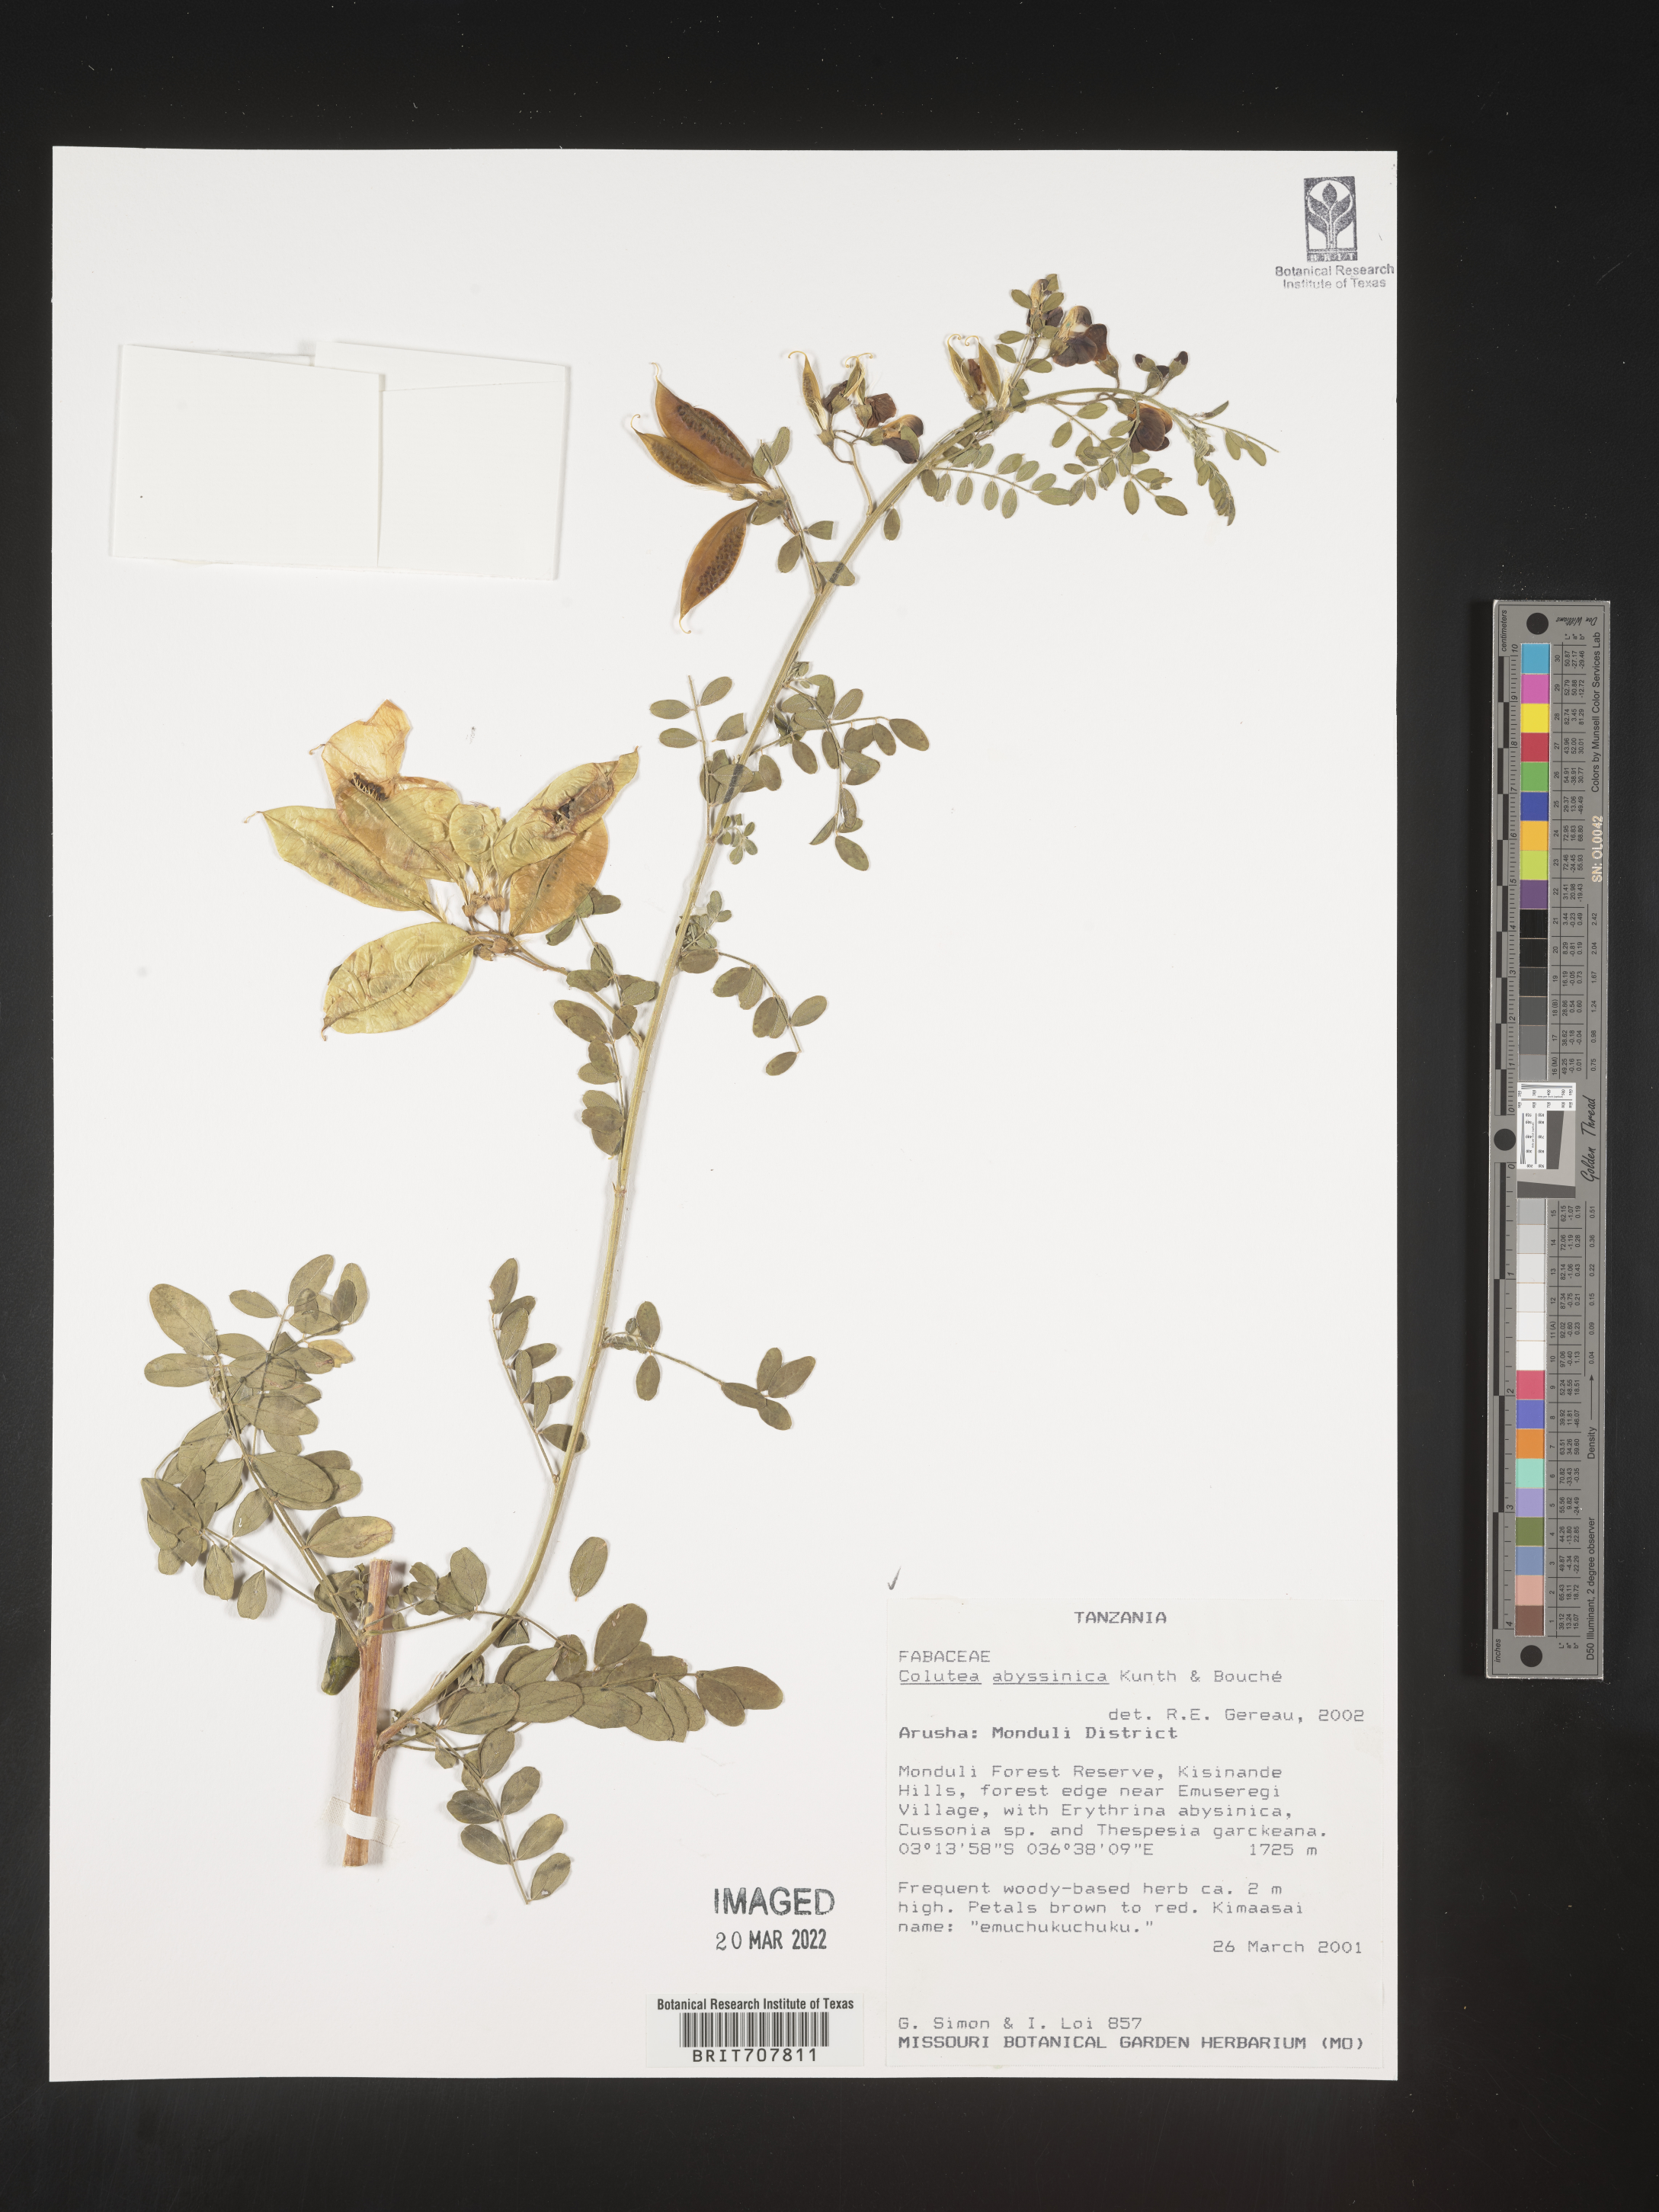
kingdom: Plantae
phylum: Tracheophyta
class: Magnoliopsida
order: Fabales
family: Fabaceae
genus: Colutea
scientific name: Colutea
